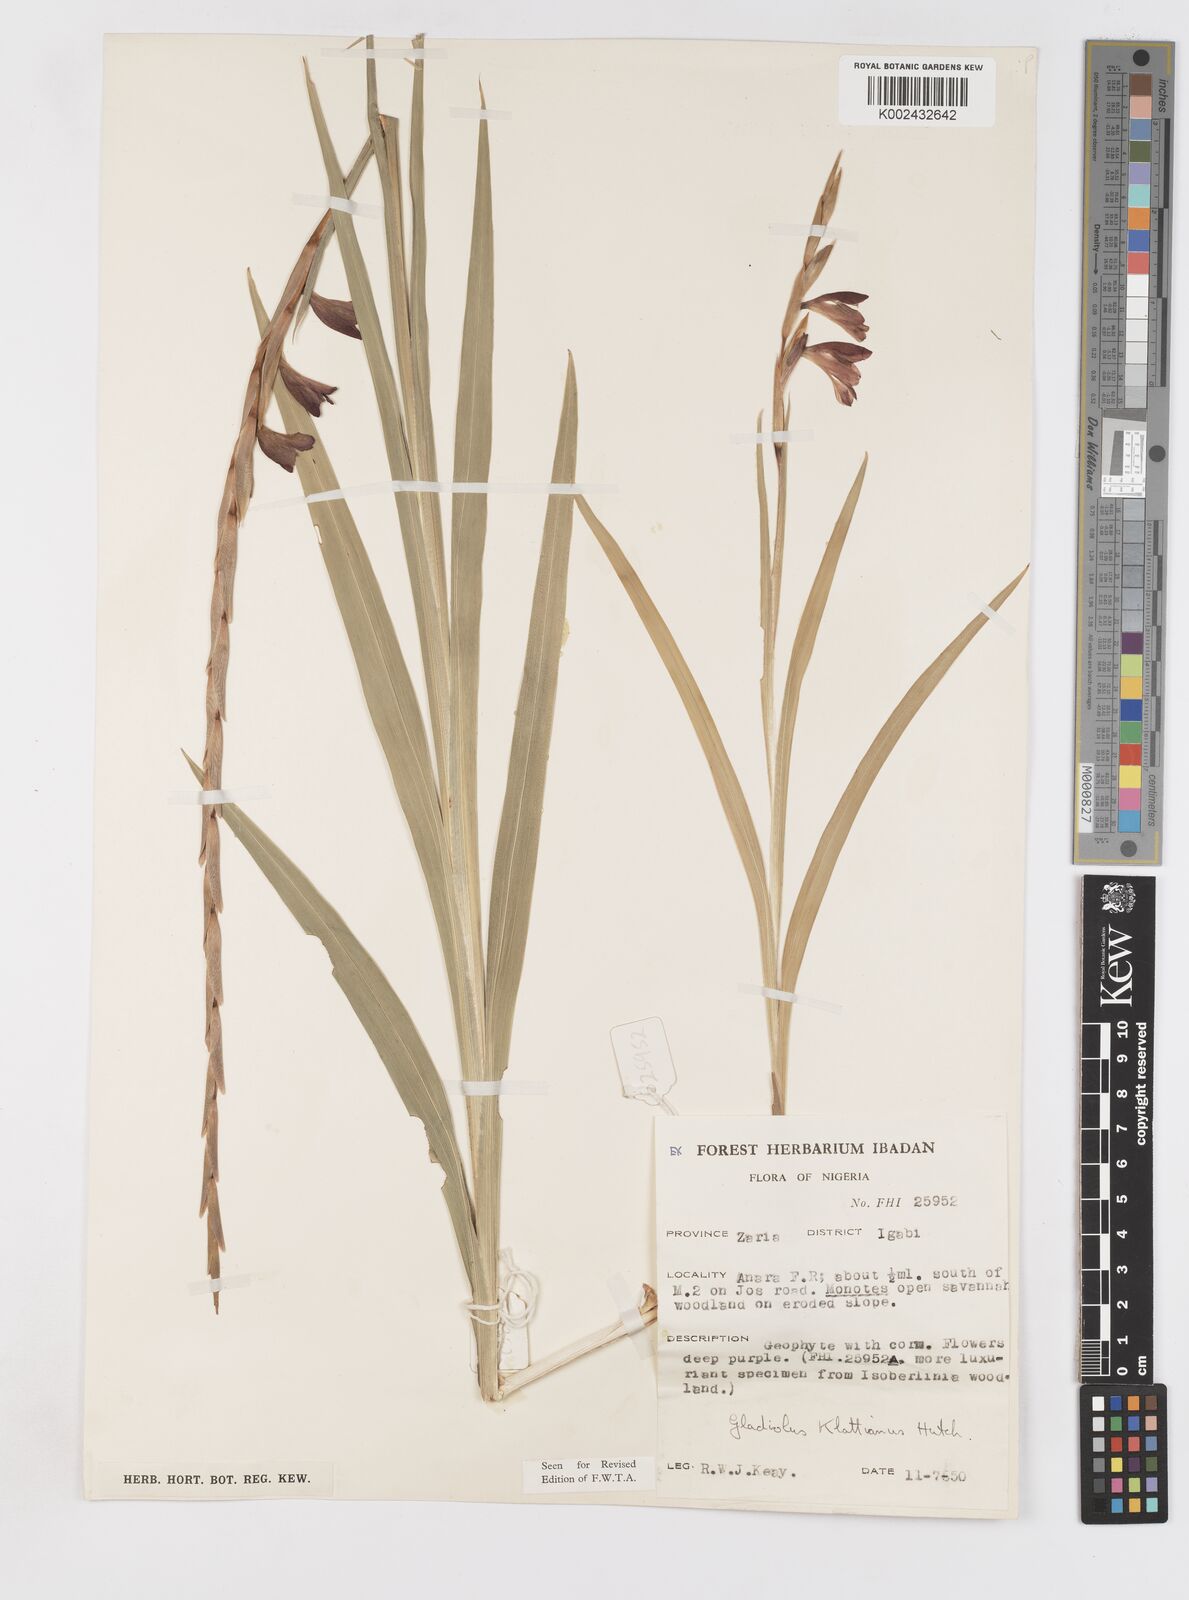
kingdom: Plantae
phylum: Tracheophyta
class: Liliopsida
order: Asparagales
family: Iridaceae
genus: Gladiolus
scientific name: Gladiolus gregarius
